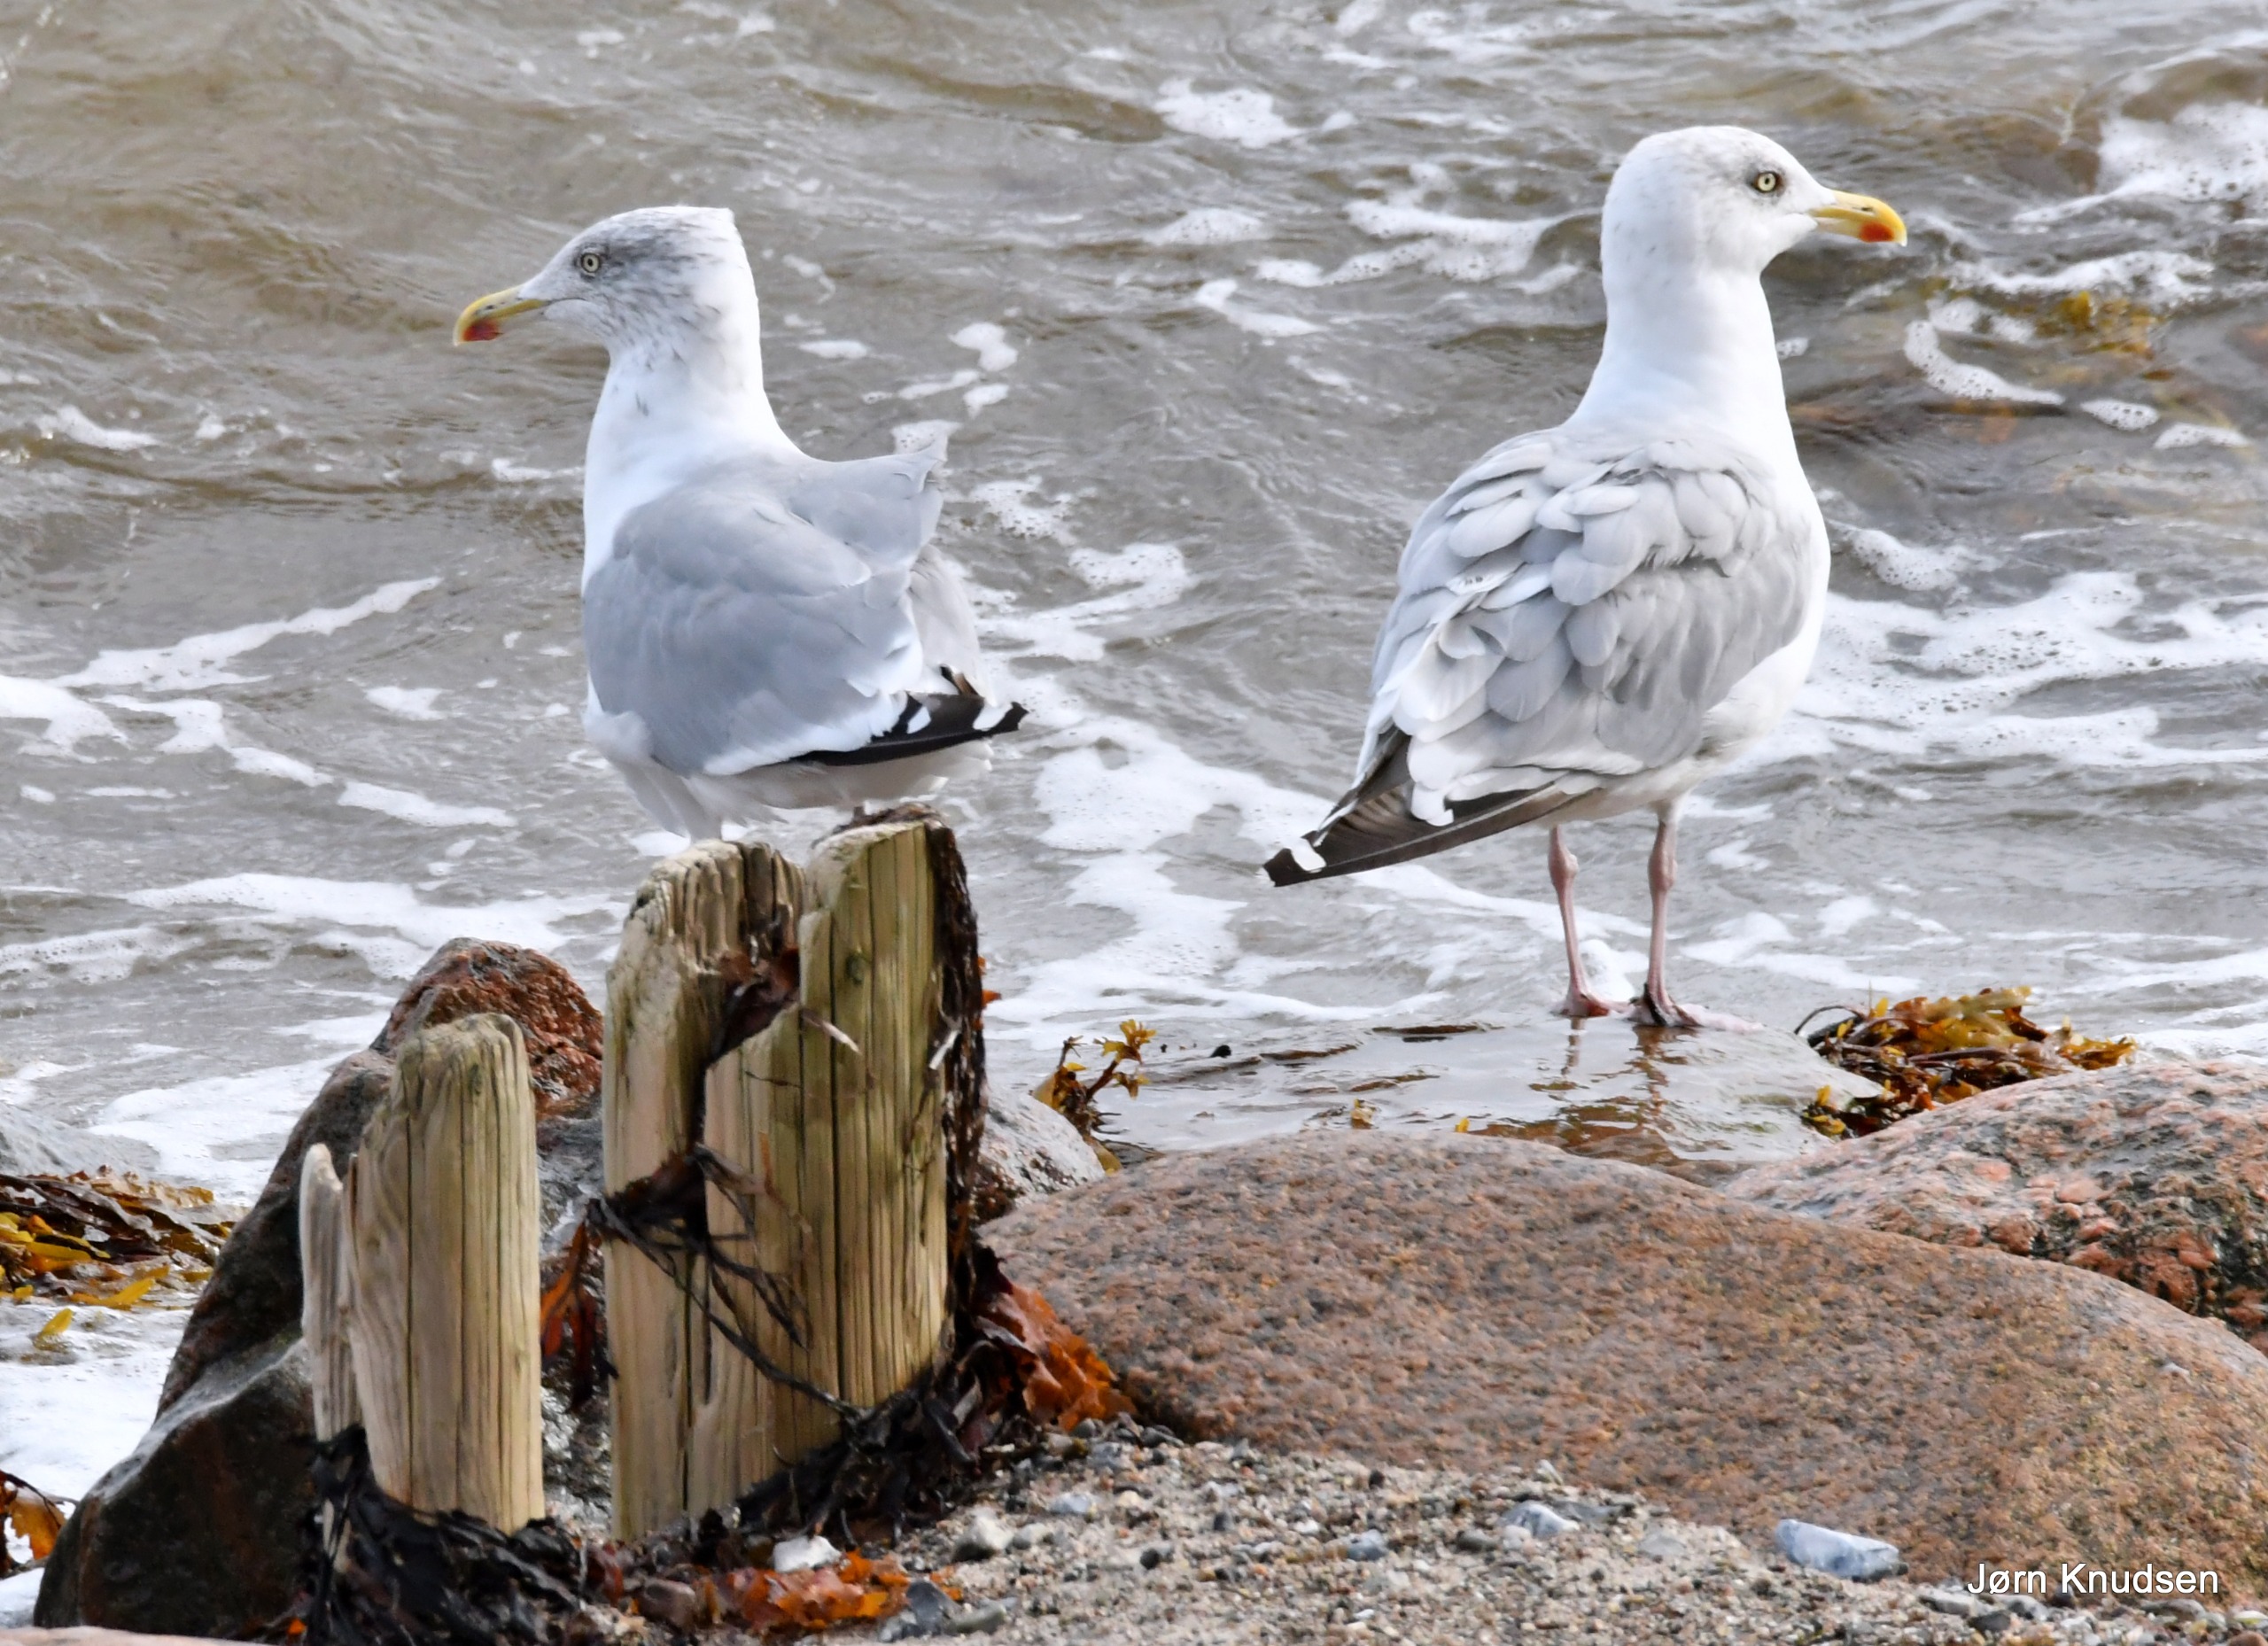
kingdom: Animalia
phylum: Chordata
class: Aves
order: Charadriiformes
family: Laridae
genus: Larus
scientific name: Larus argentatus
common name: Sølvmåge
